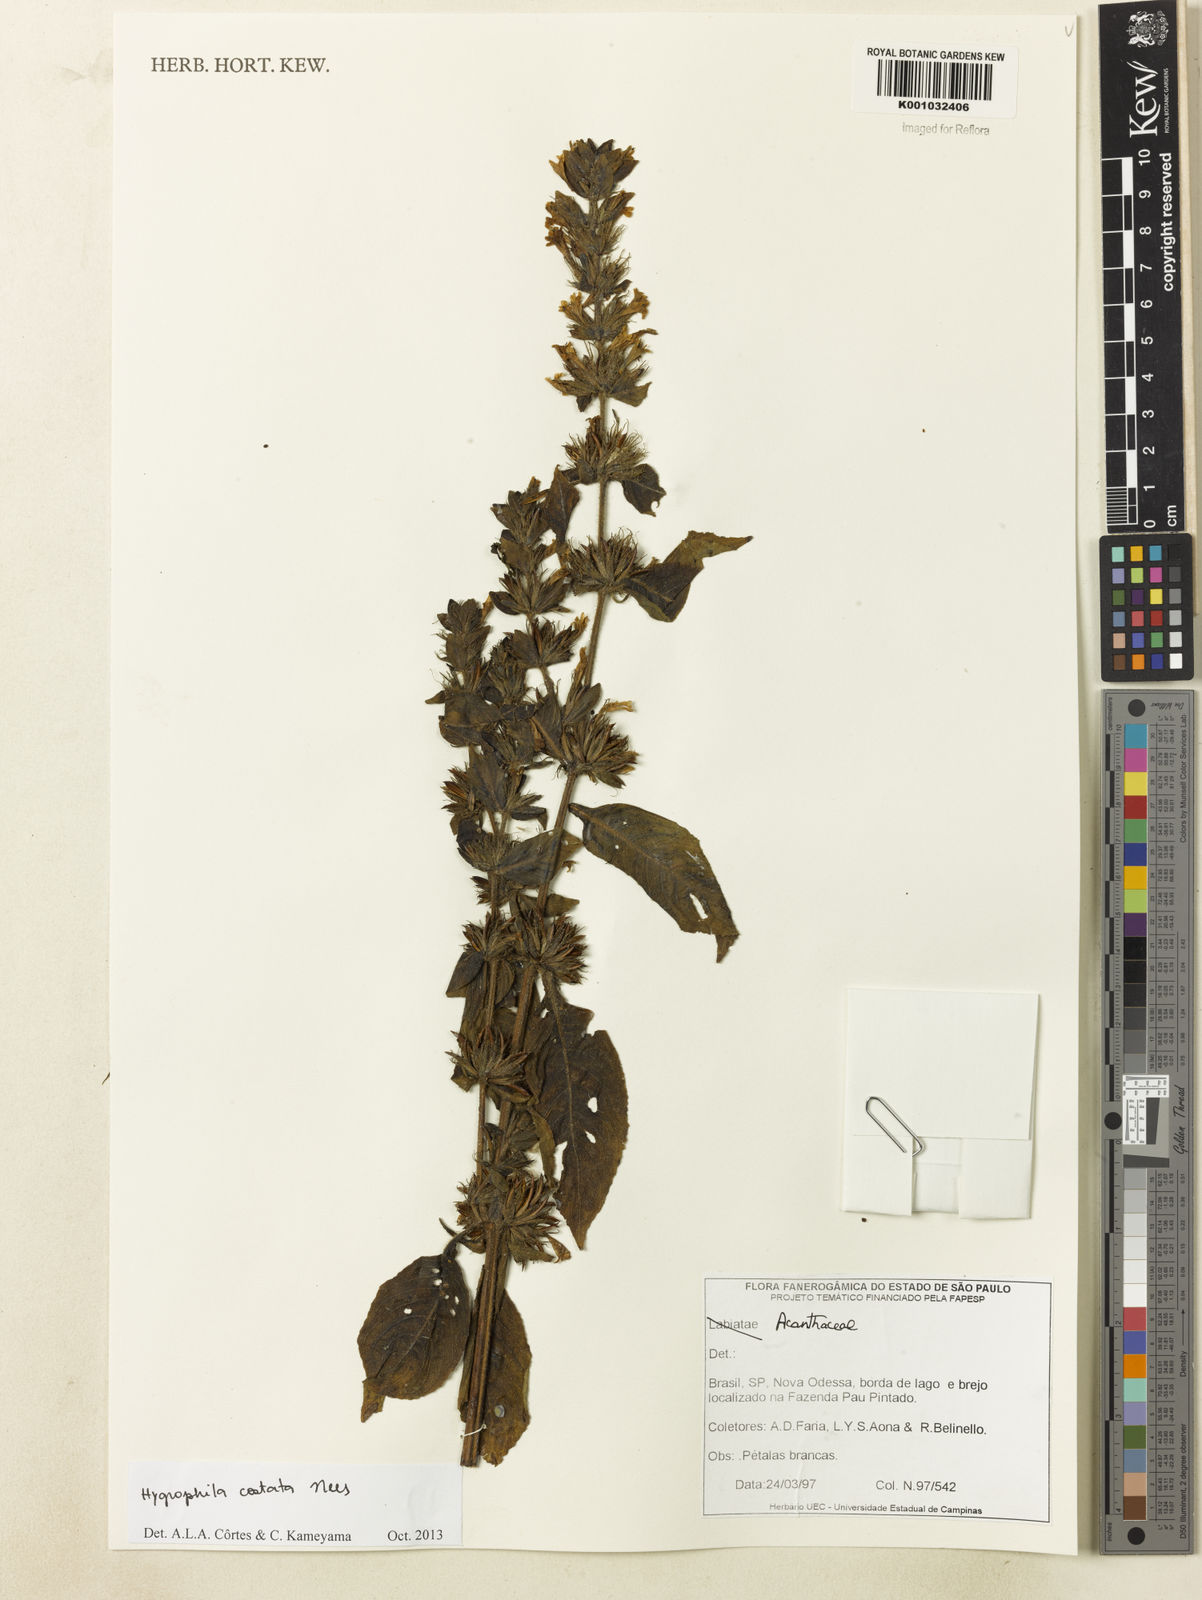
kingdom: Plantae
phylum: Tracheophyta
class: Magnoliopsida
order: Lamiales
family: Acanthaceae
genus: Hygrophila
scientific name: Hygrophila costata
